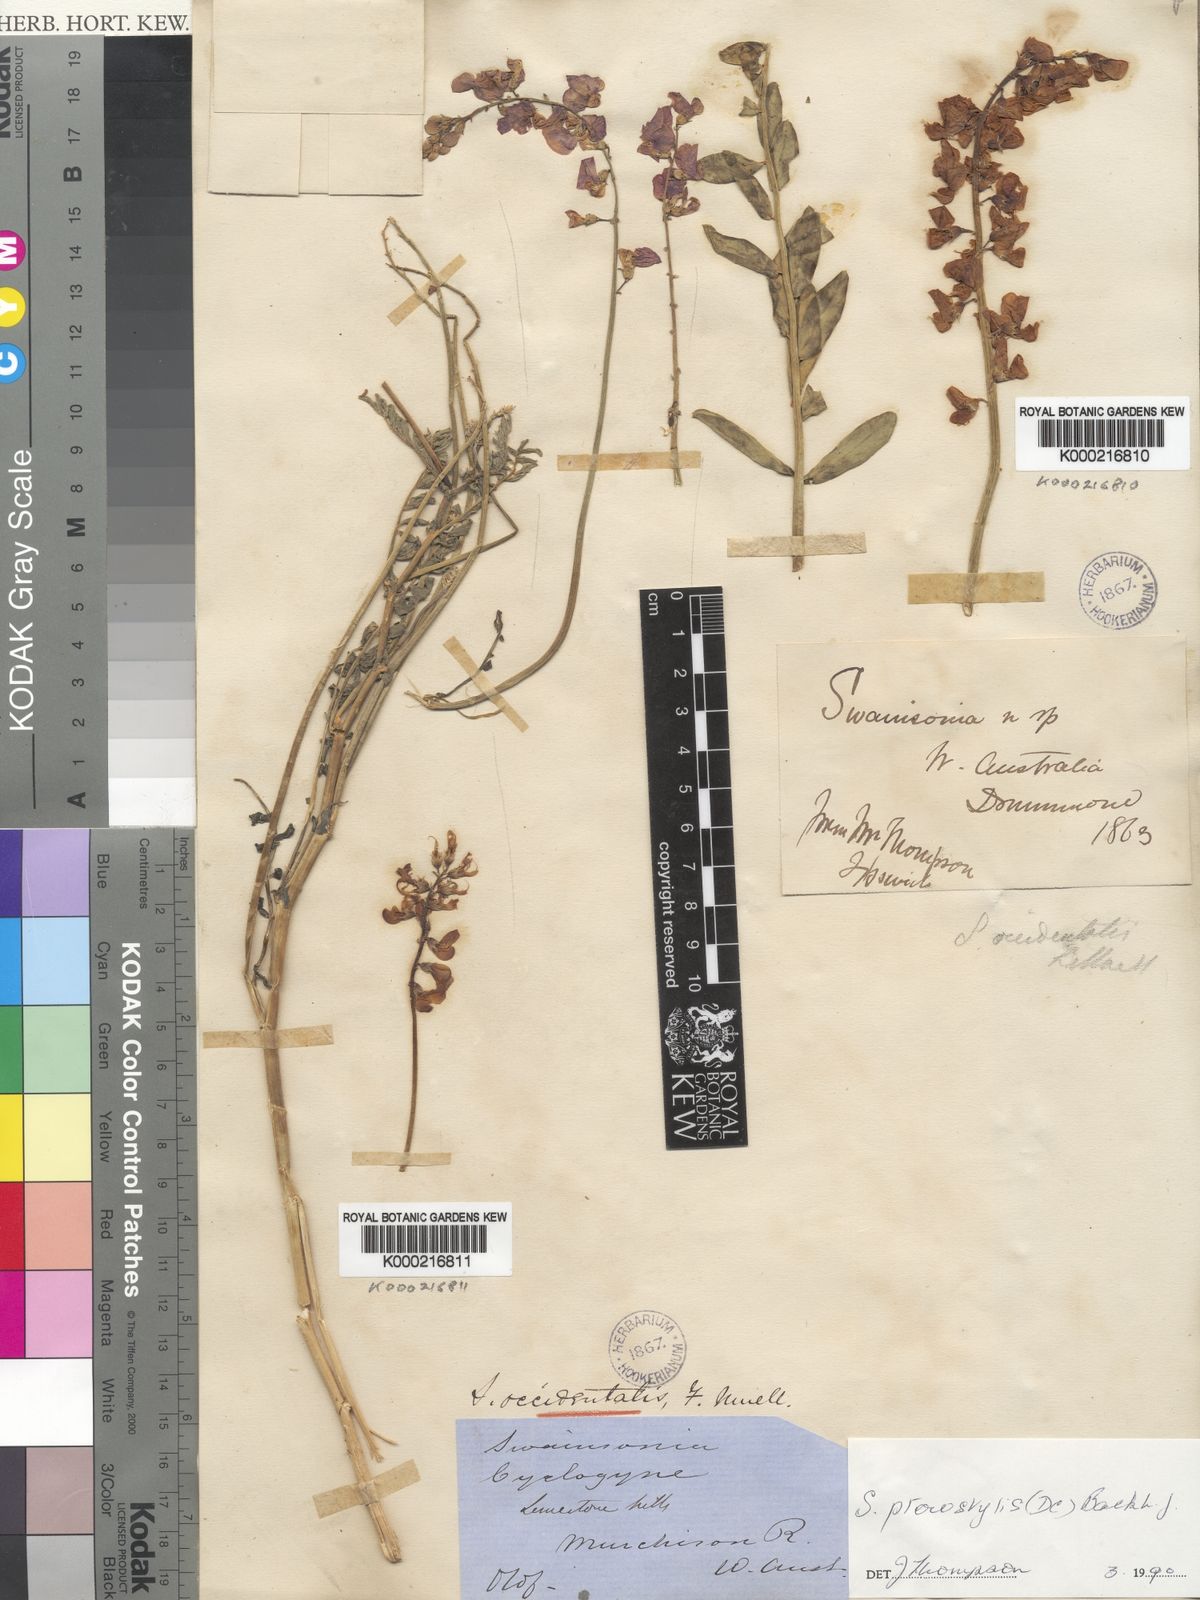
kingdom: Plantae
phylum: Tracheophyta
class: Magnoliopsida
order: Fabales
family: Fabaceae
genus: Swainsona
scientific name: Swainsona pterostylis
